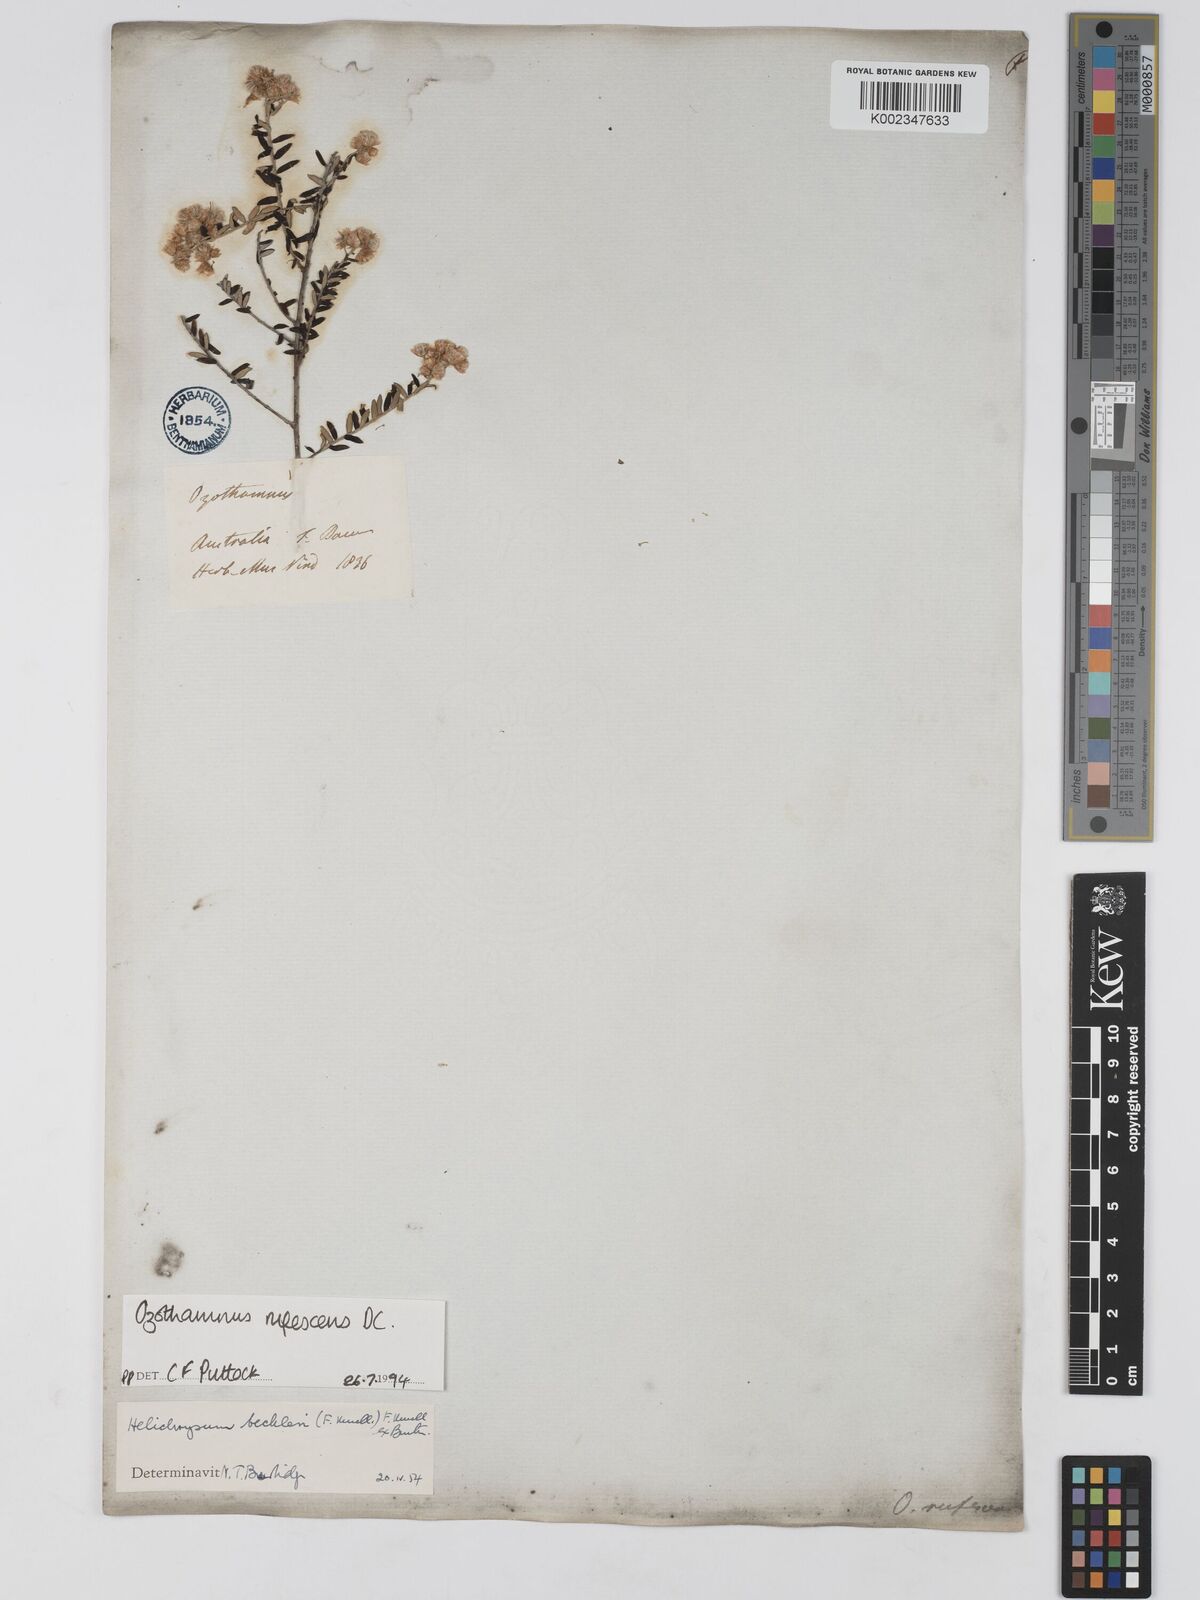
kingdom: Plantae
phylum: Tracheophyta
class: Magnoliopsida
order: Asterales
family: Asteraceae
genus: Ozothamnus
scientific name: Ozothamnus rufescens
